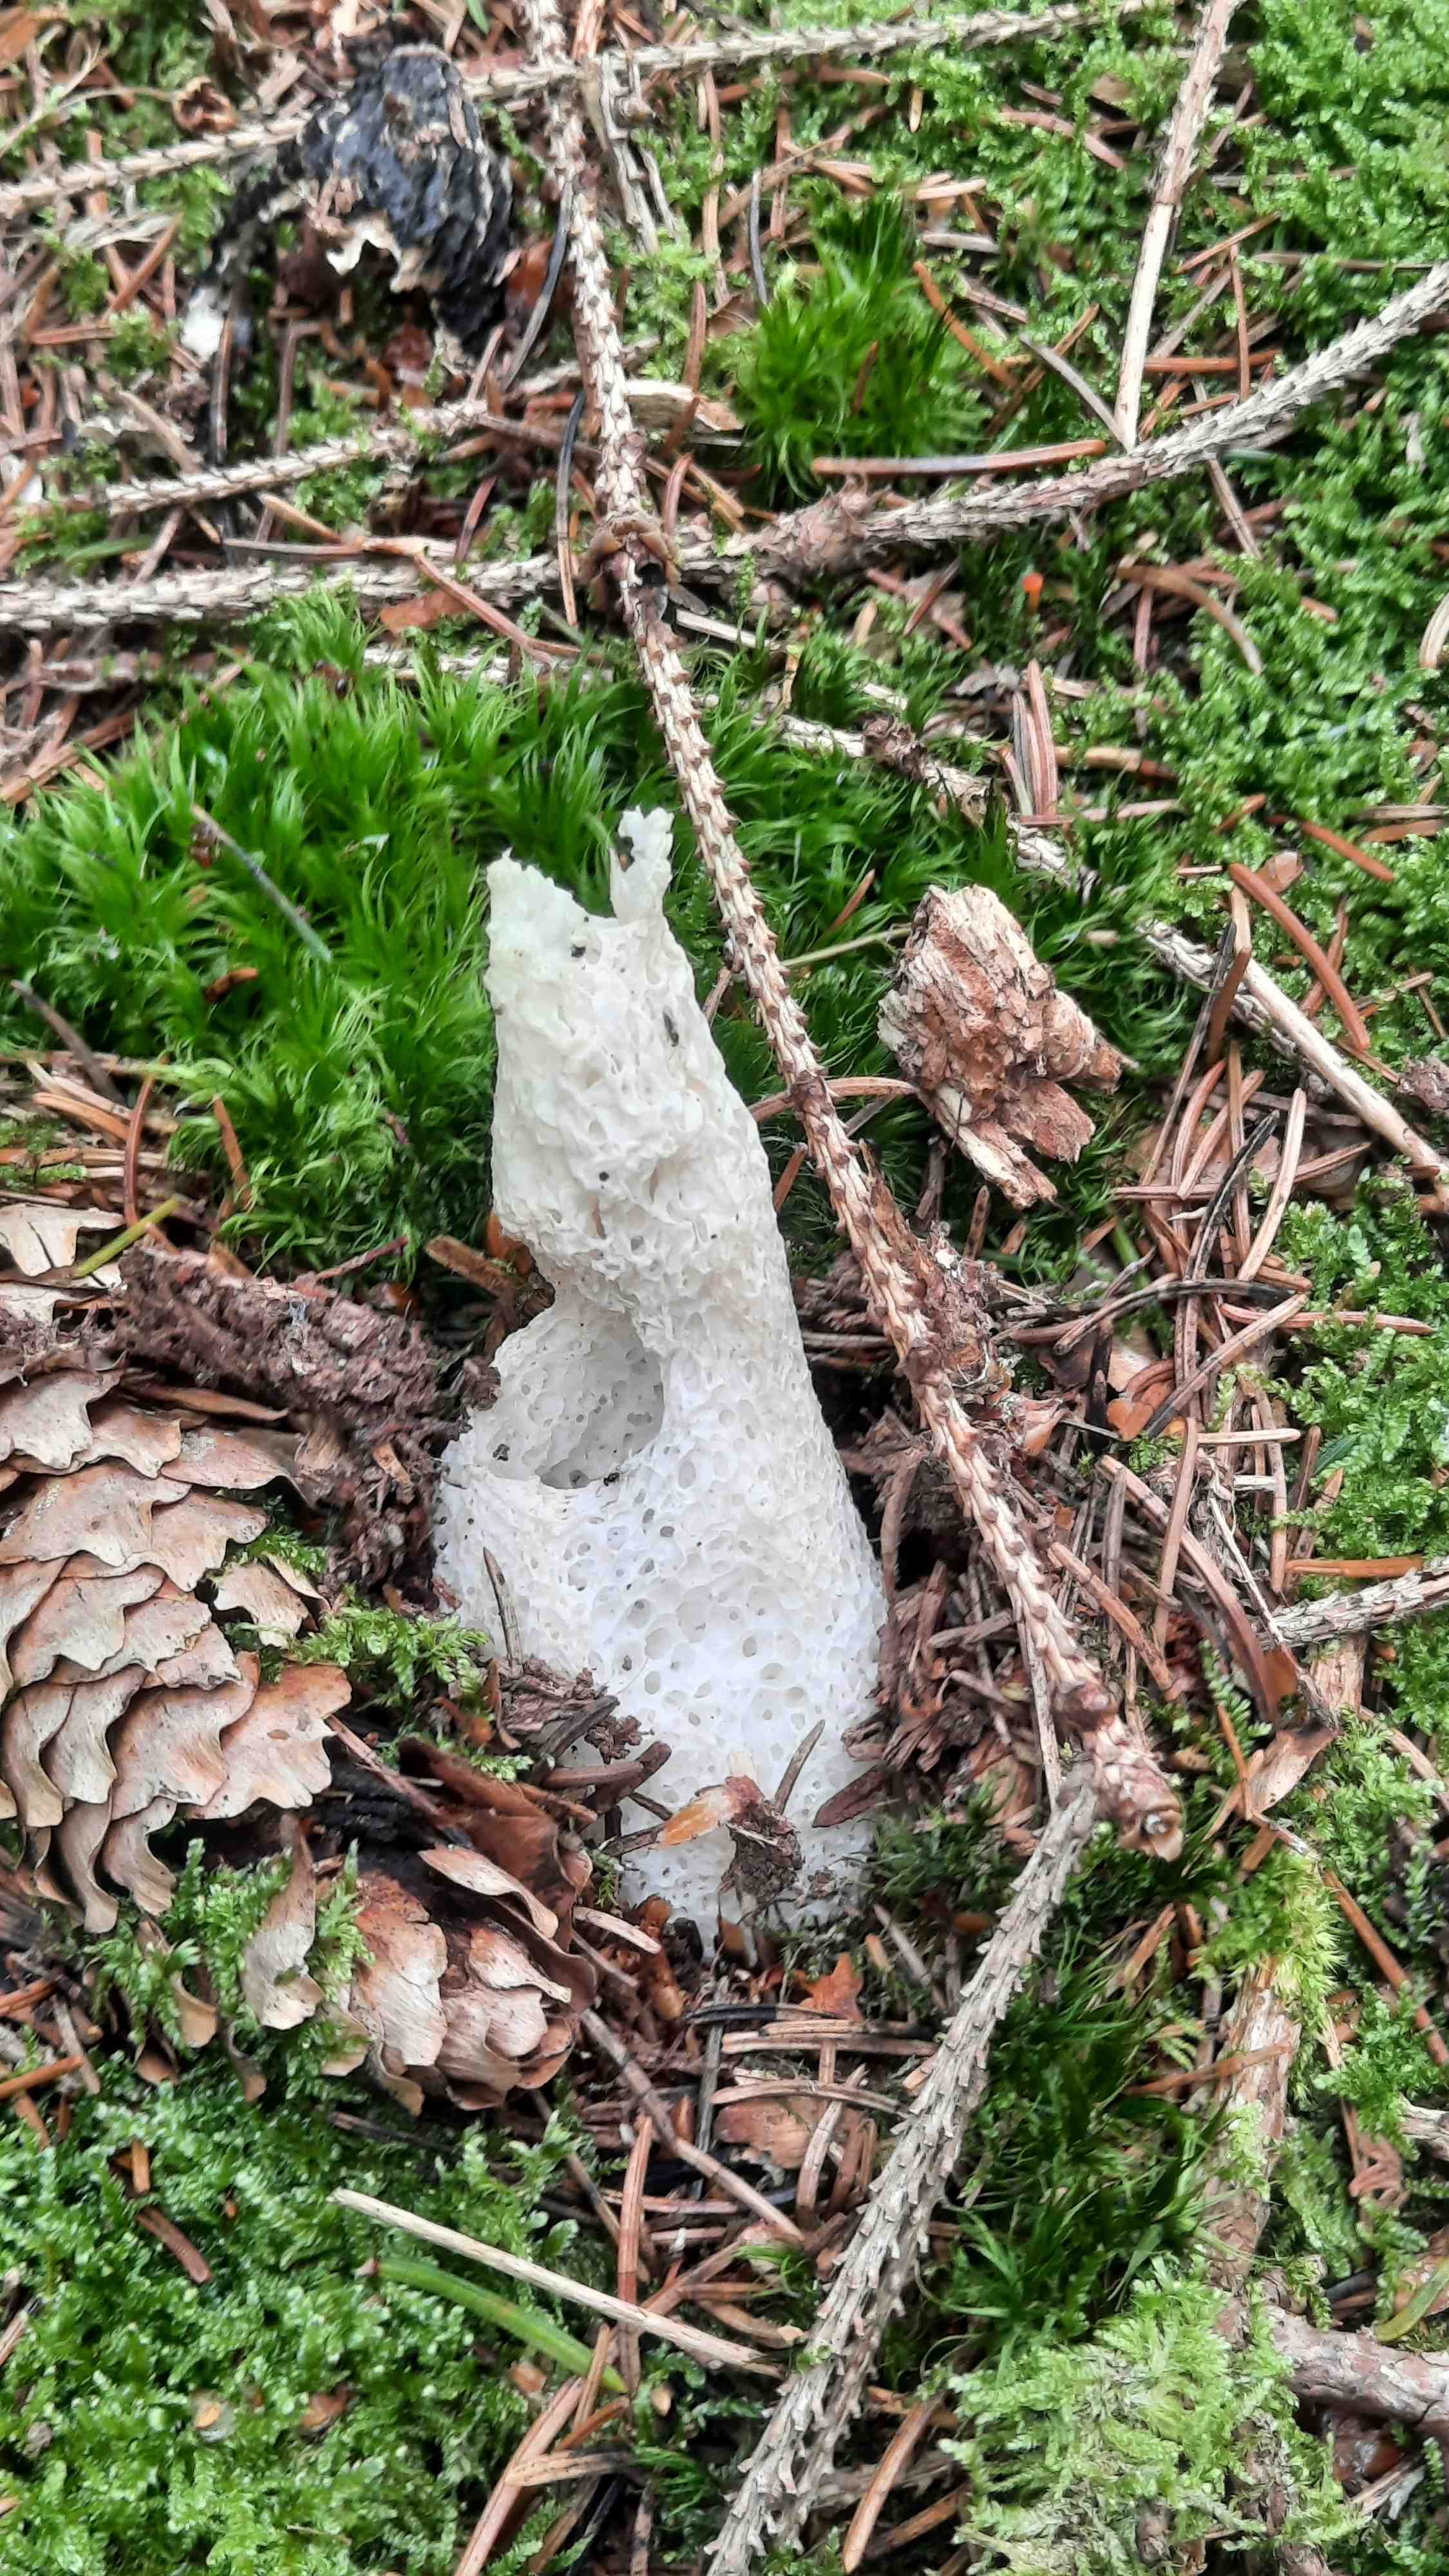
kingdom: Fungi
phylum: Basidiomycota
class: Agaricomycetes
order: Phallales
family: Phallaceae
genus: Phallus
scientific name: Phallus impudicus
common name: almindelig stinksvamp
